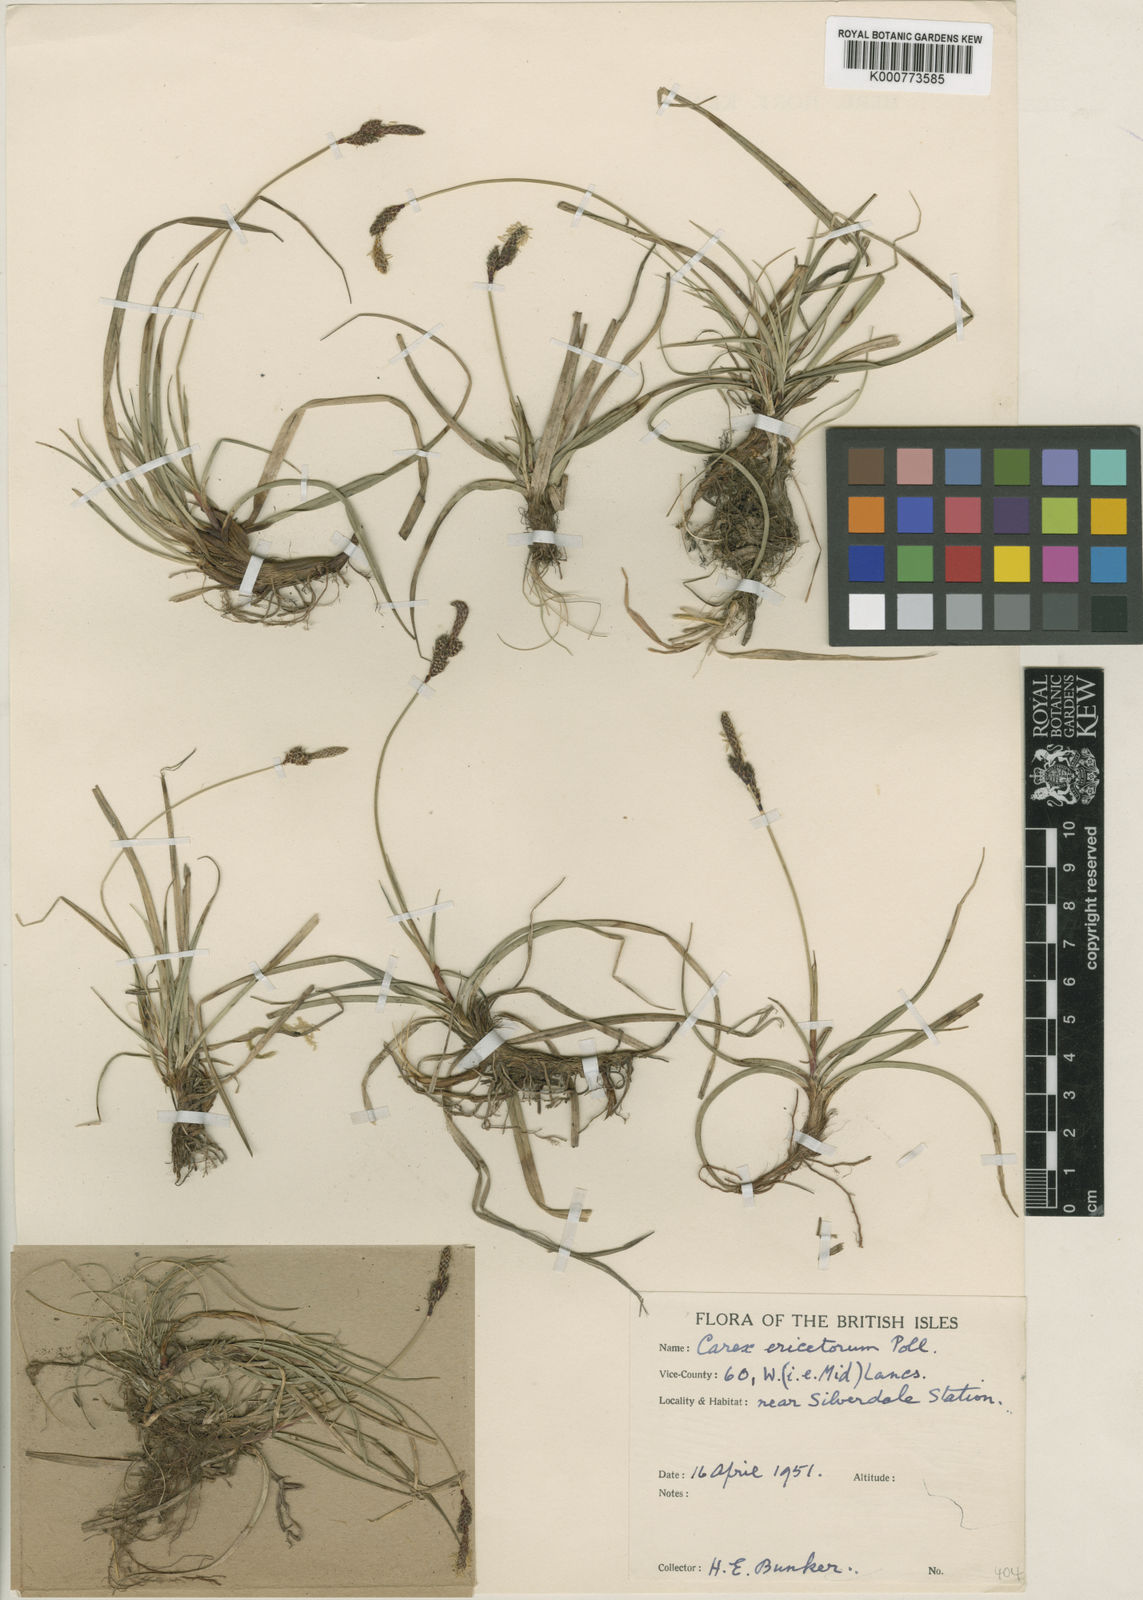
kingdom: Plantae
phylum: Tracheophyta
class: Liliopsida
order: Poales
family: Cyperaceae
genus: Carex
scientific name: Carex ericetorum
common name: Rare spring-sedge
